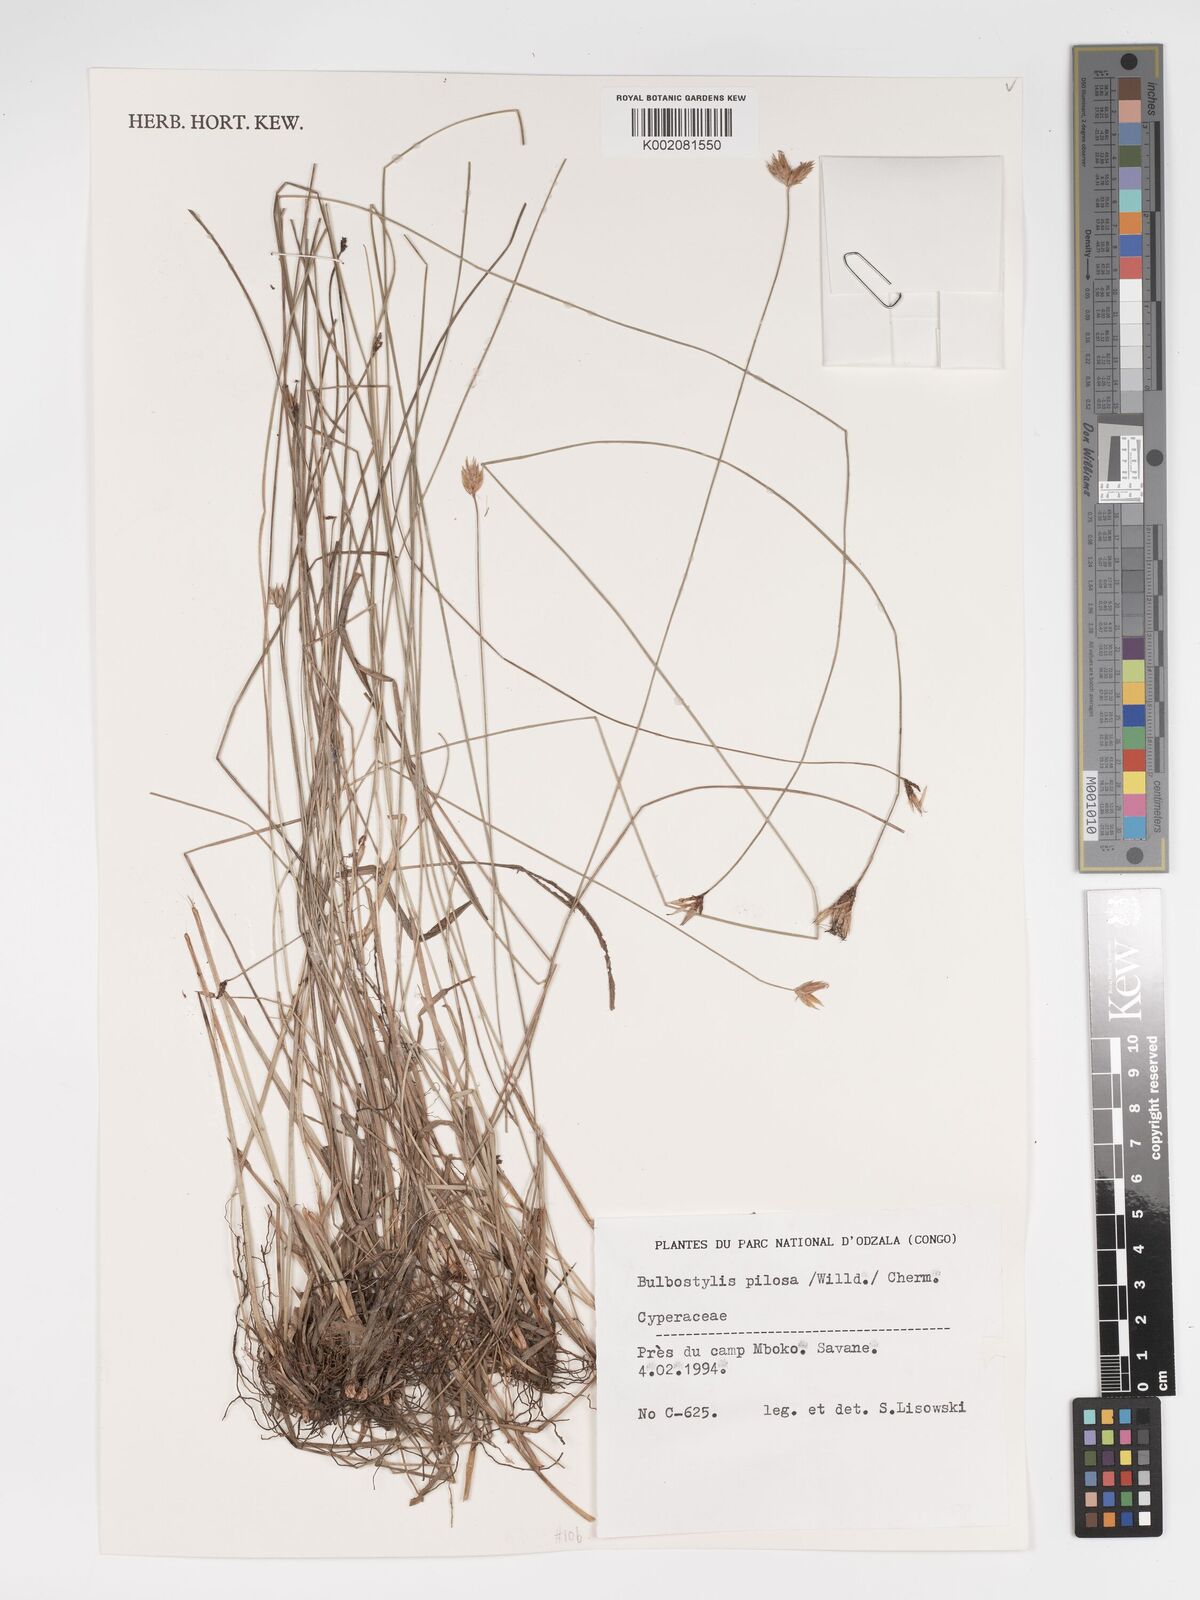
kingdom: Plantae
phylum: Tracheophyta
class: Liliopsida
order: Poales
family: Cyperaceae
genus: Bulbostylis
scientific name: Bulbostylis pilosa
